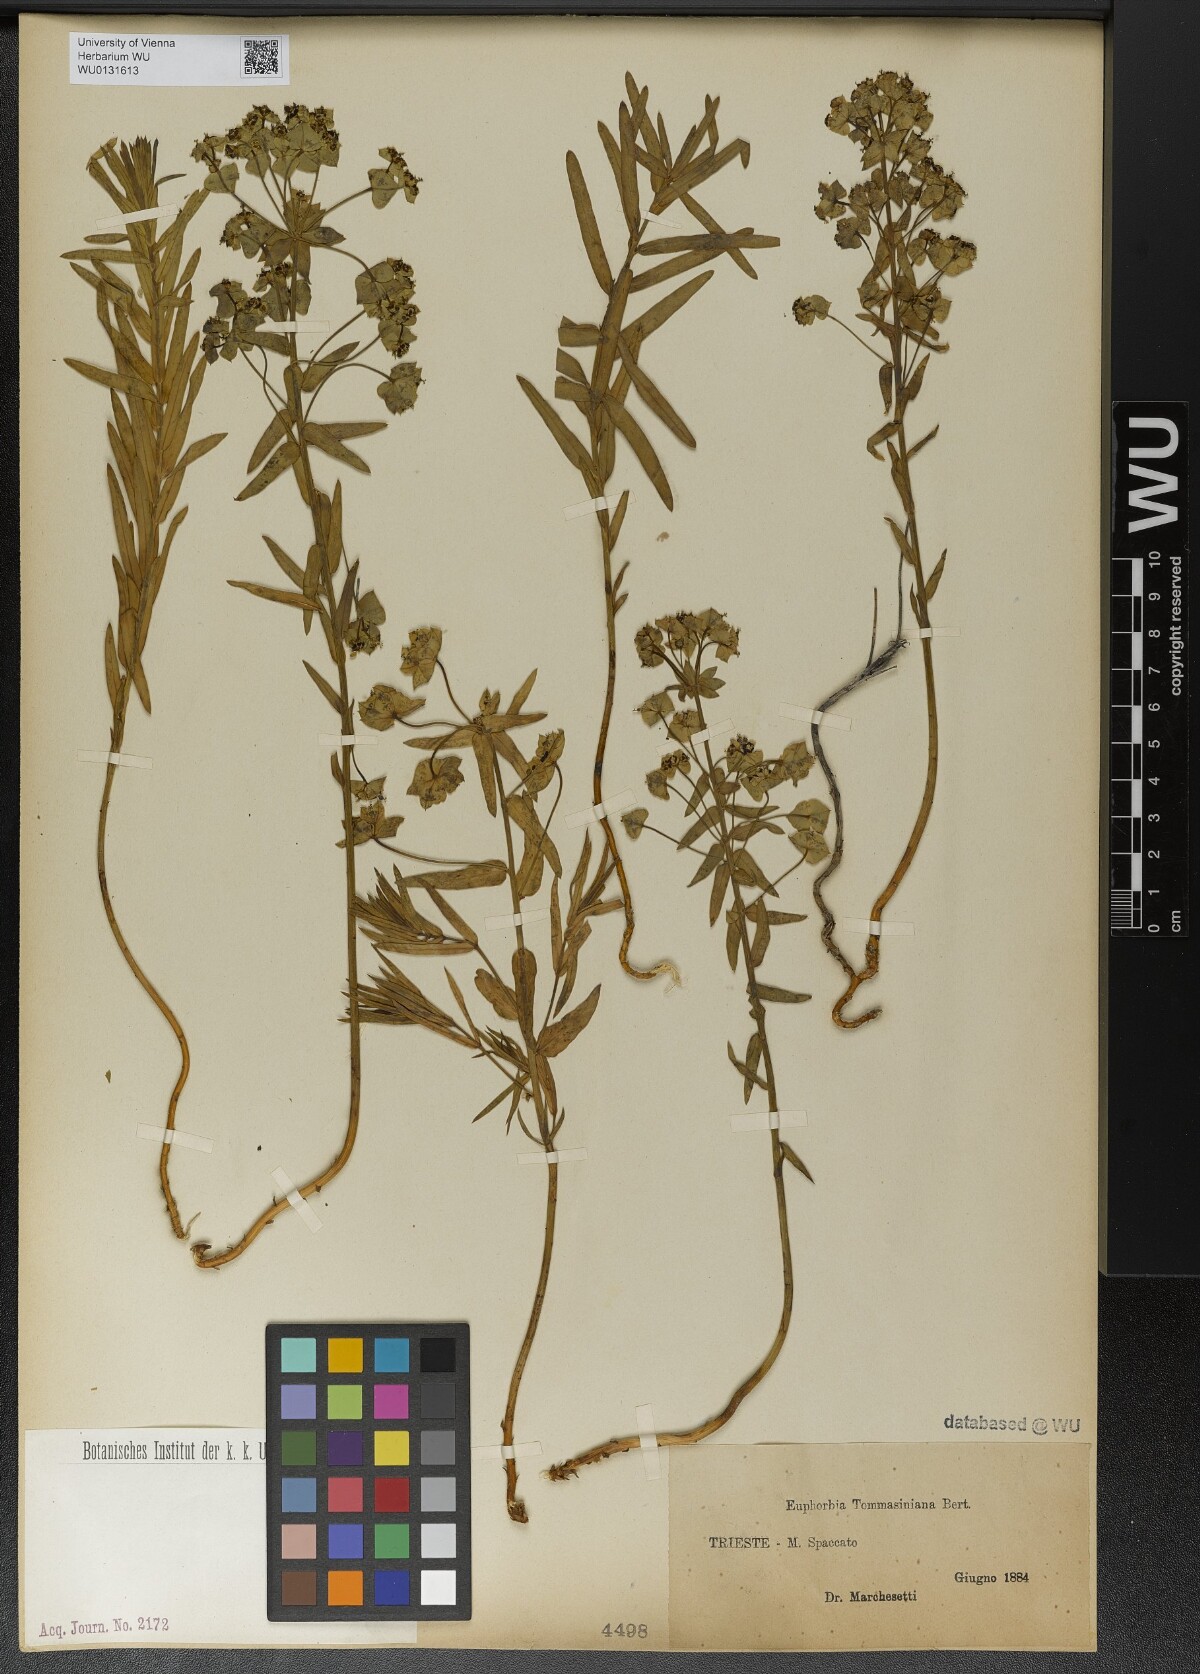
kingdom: Plantae
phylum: Tracheophyta
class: Magnoliopsida
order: Malpighiales
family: Euphorbiaceae
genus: Euphorbia
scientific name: Euphorbia tommasiniana
